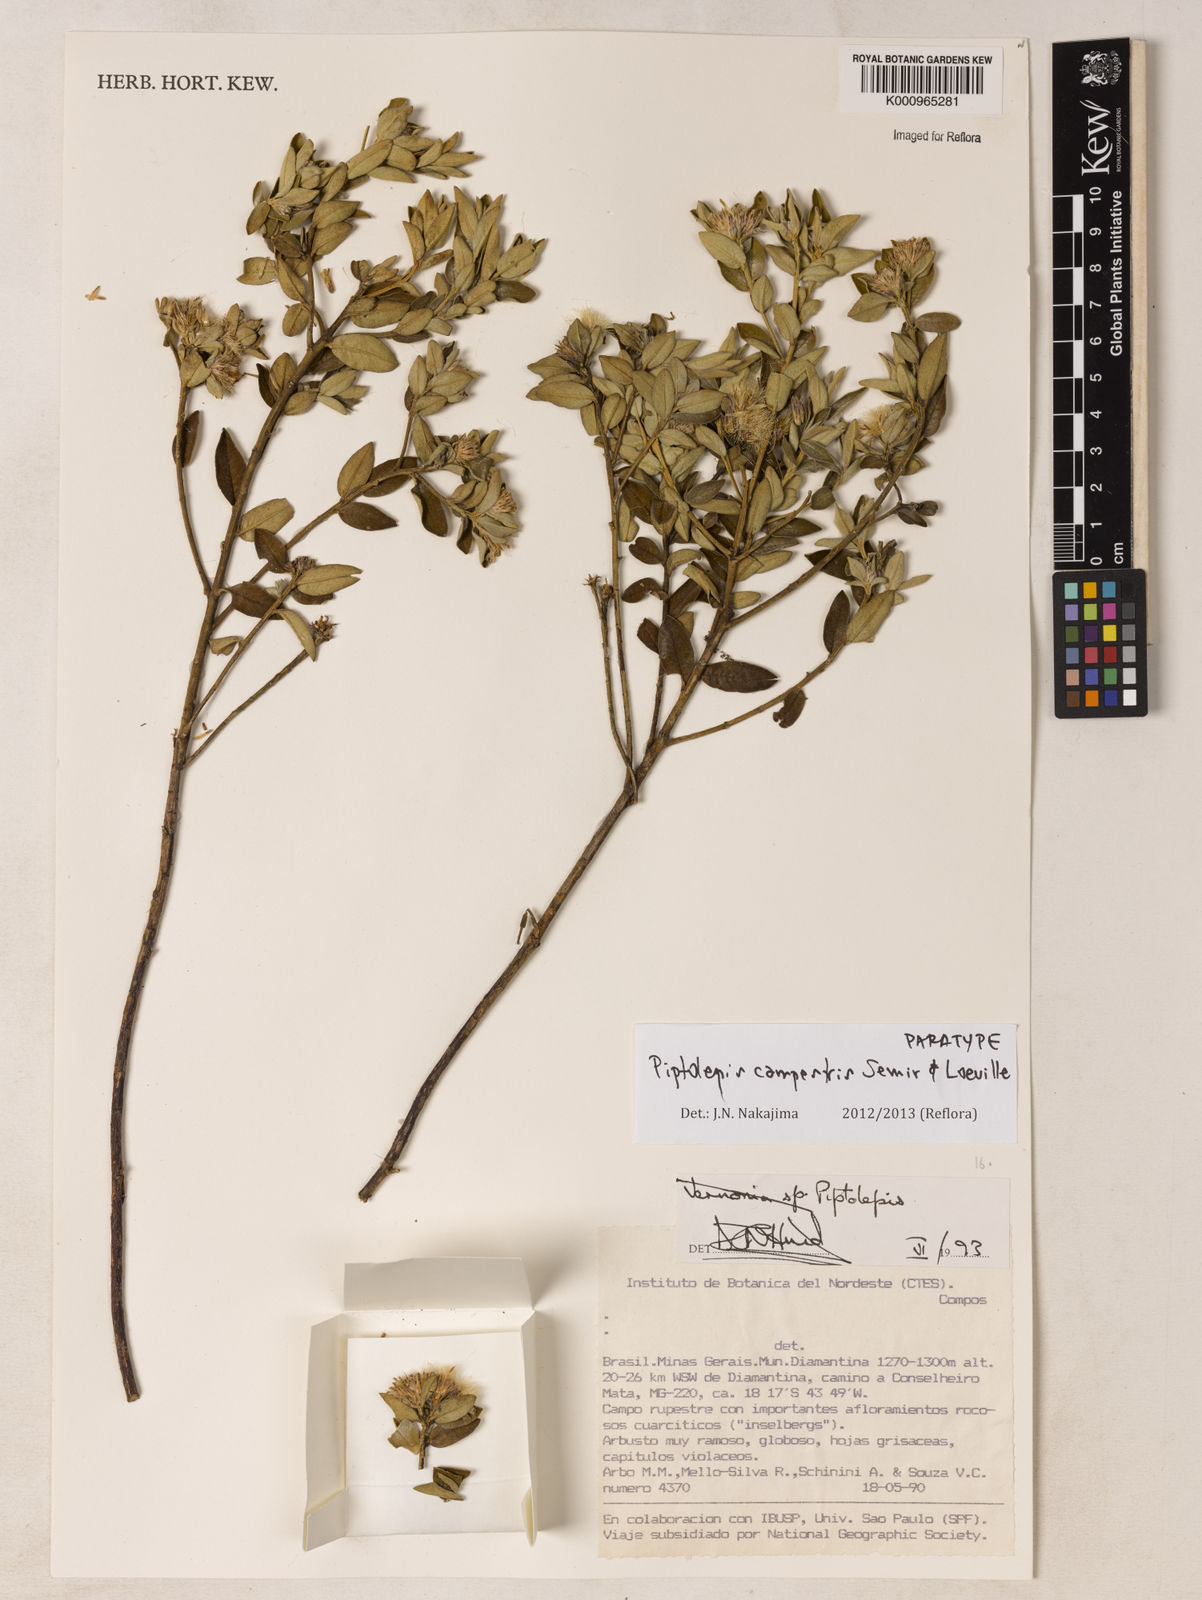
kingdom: Plantae
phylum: Tracheophyta
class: Magnoliopsida
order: Asterales
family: Asteraceae
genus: Piptolepis
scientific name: Piptolepis campestris
